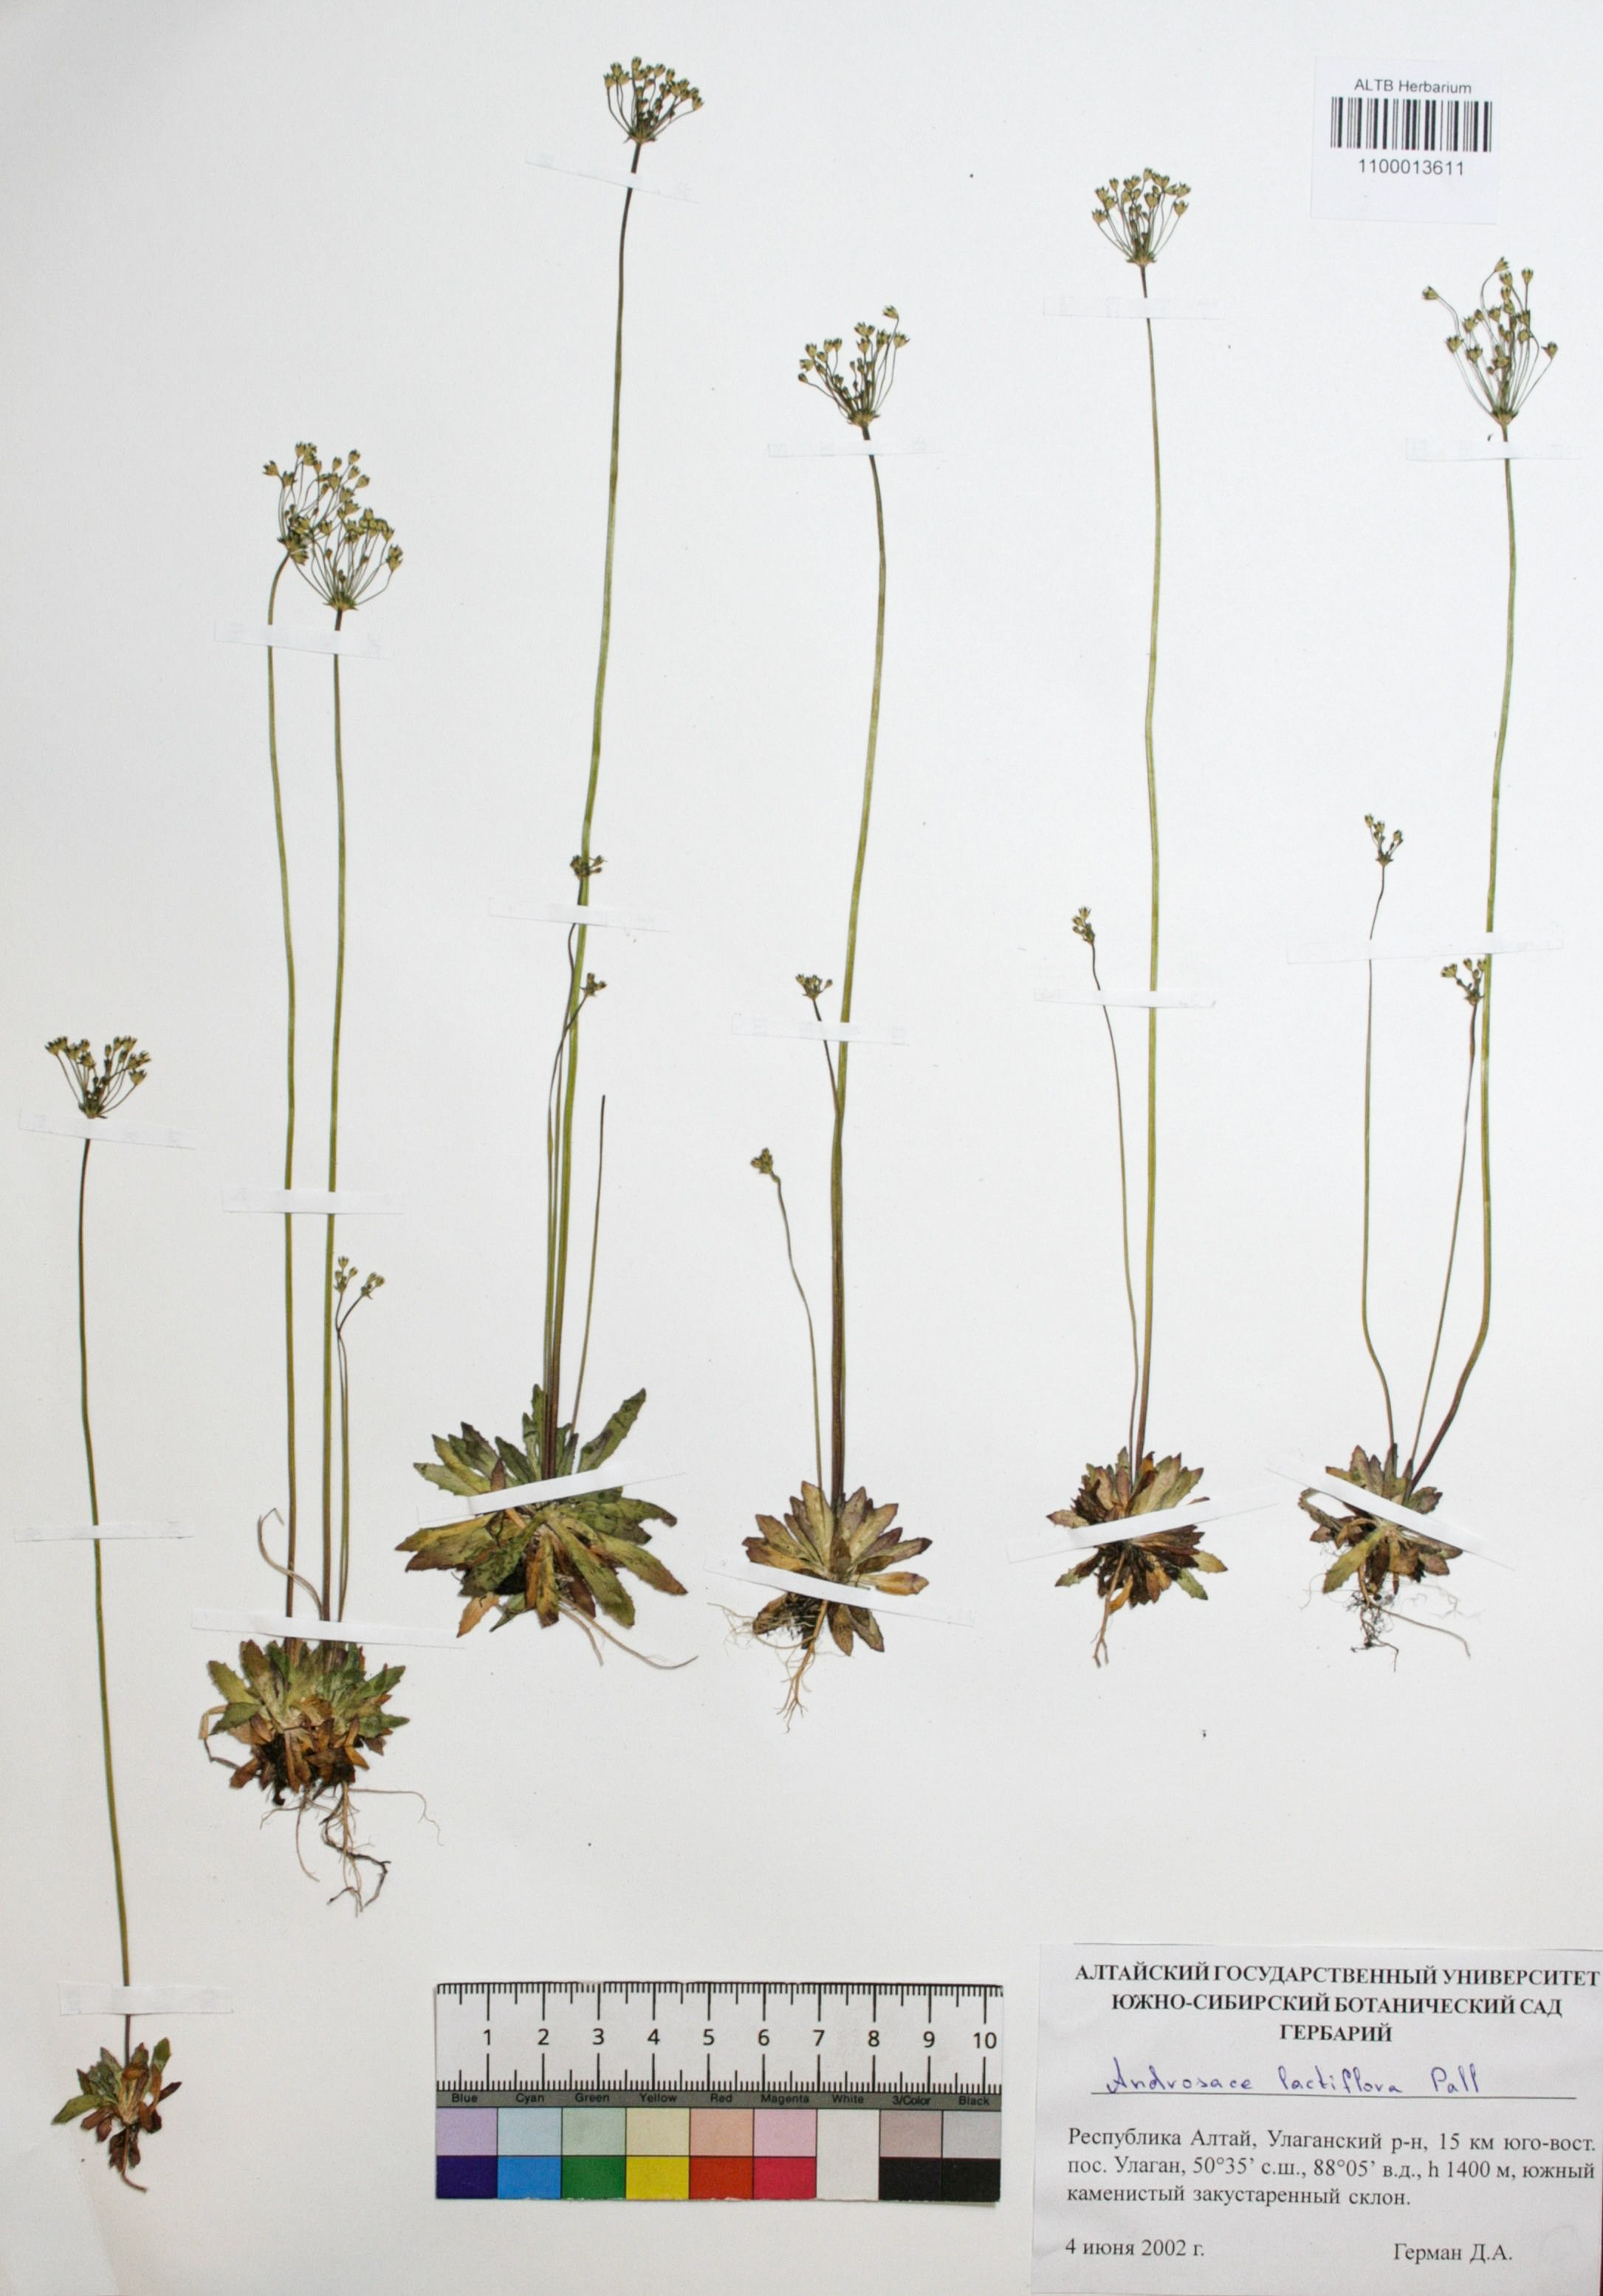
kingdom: Plantae
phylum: Tracheophyta
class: Magnoliopsida
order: Ericales
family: Primulaceae
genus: Androsace
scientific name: Androsace lactiflora
